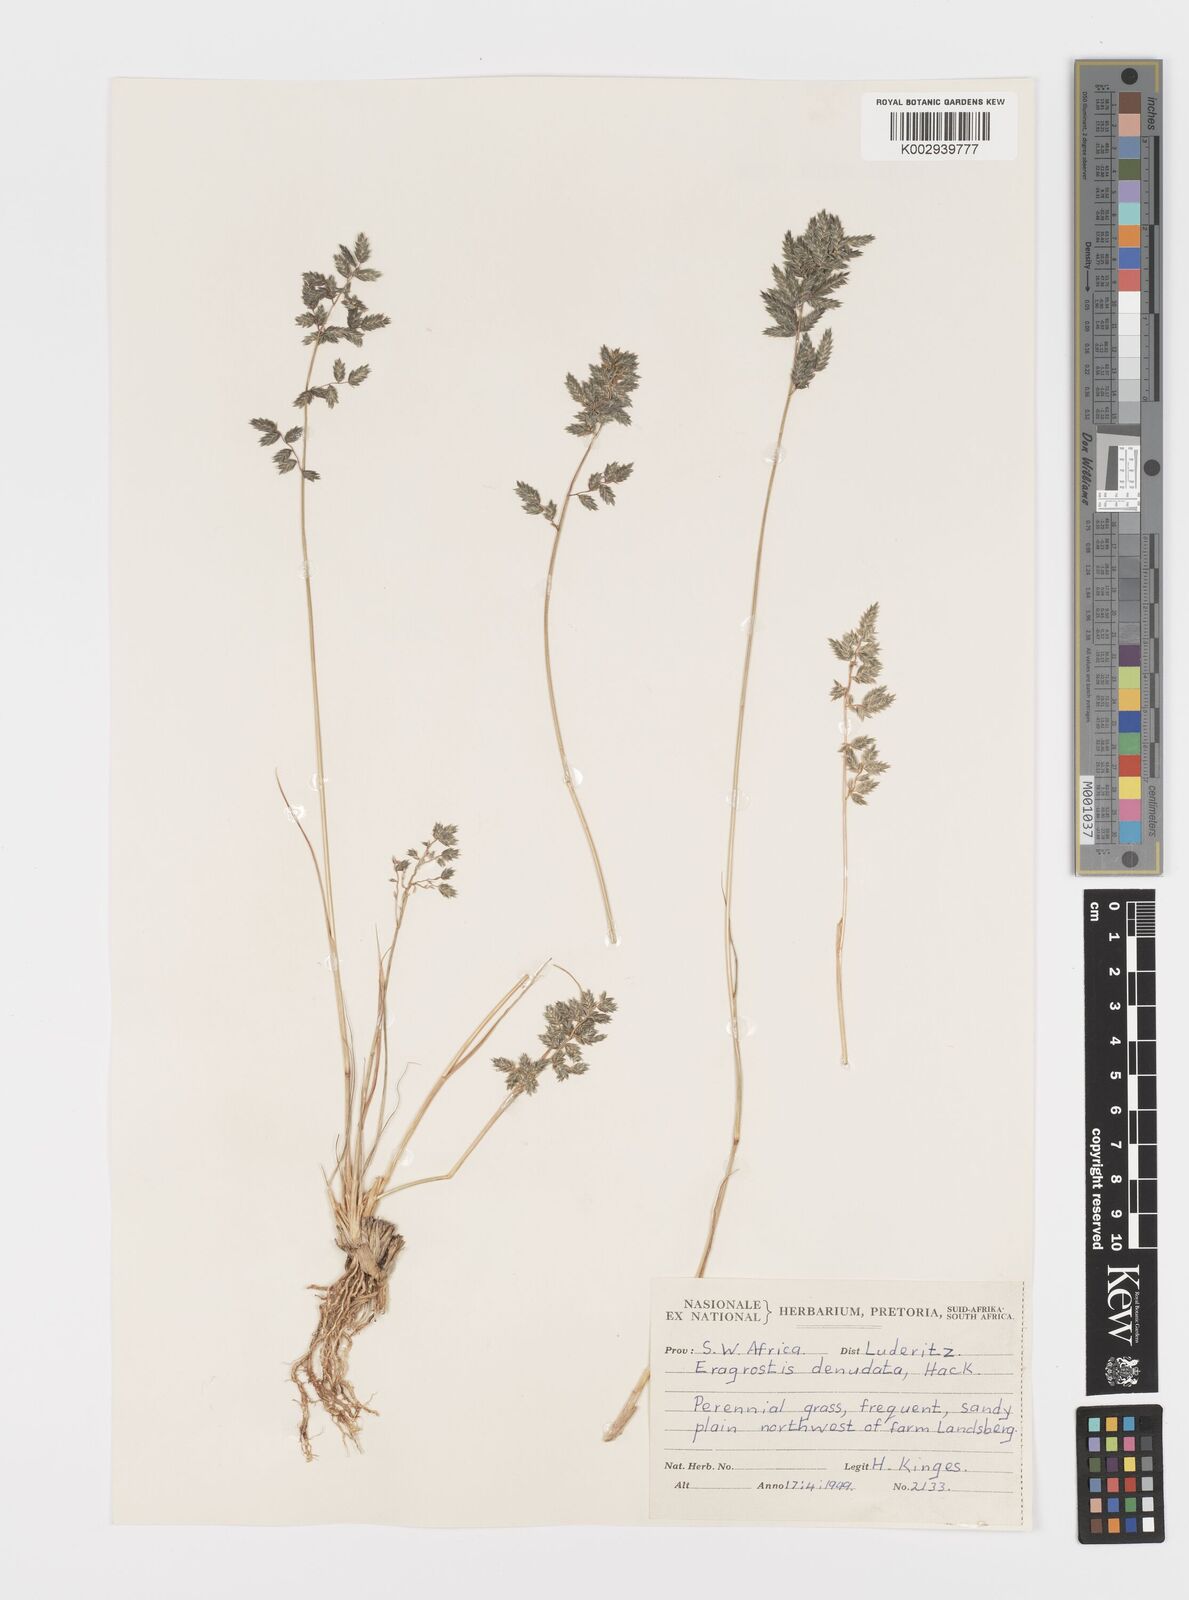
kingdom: Plantae
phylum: Tracheophyta
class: Liliopsida
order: Poales
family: Poaceae
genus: Eragrostis
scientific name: Eragrostis nindensis
